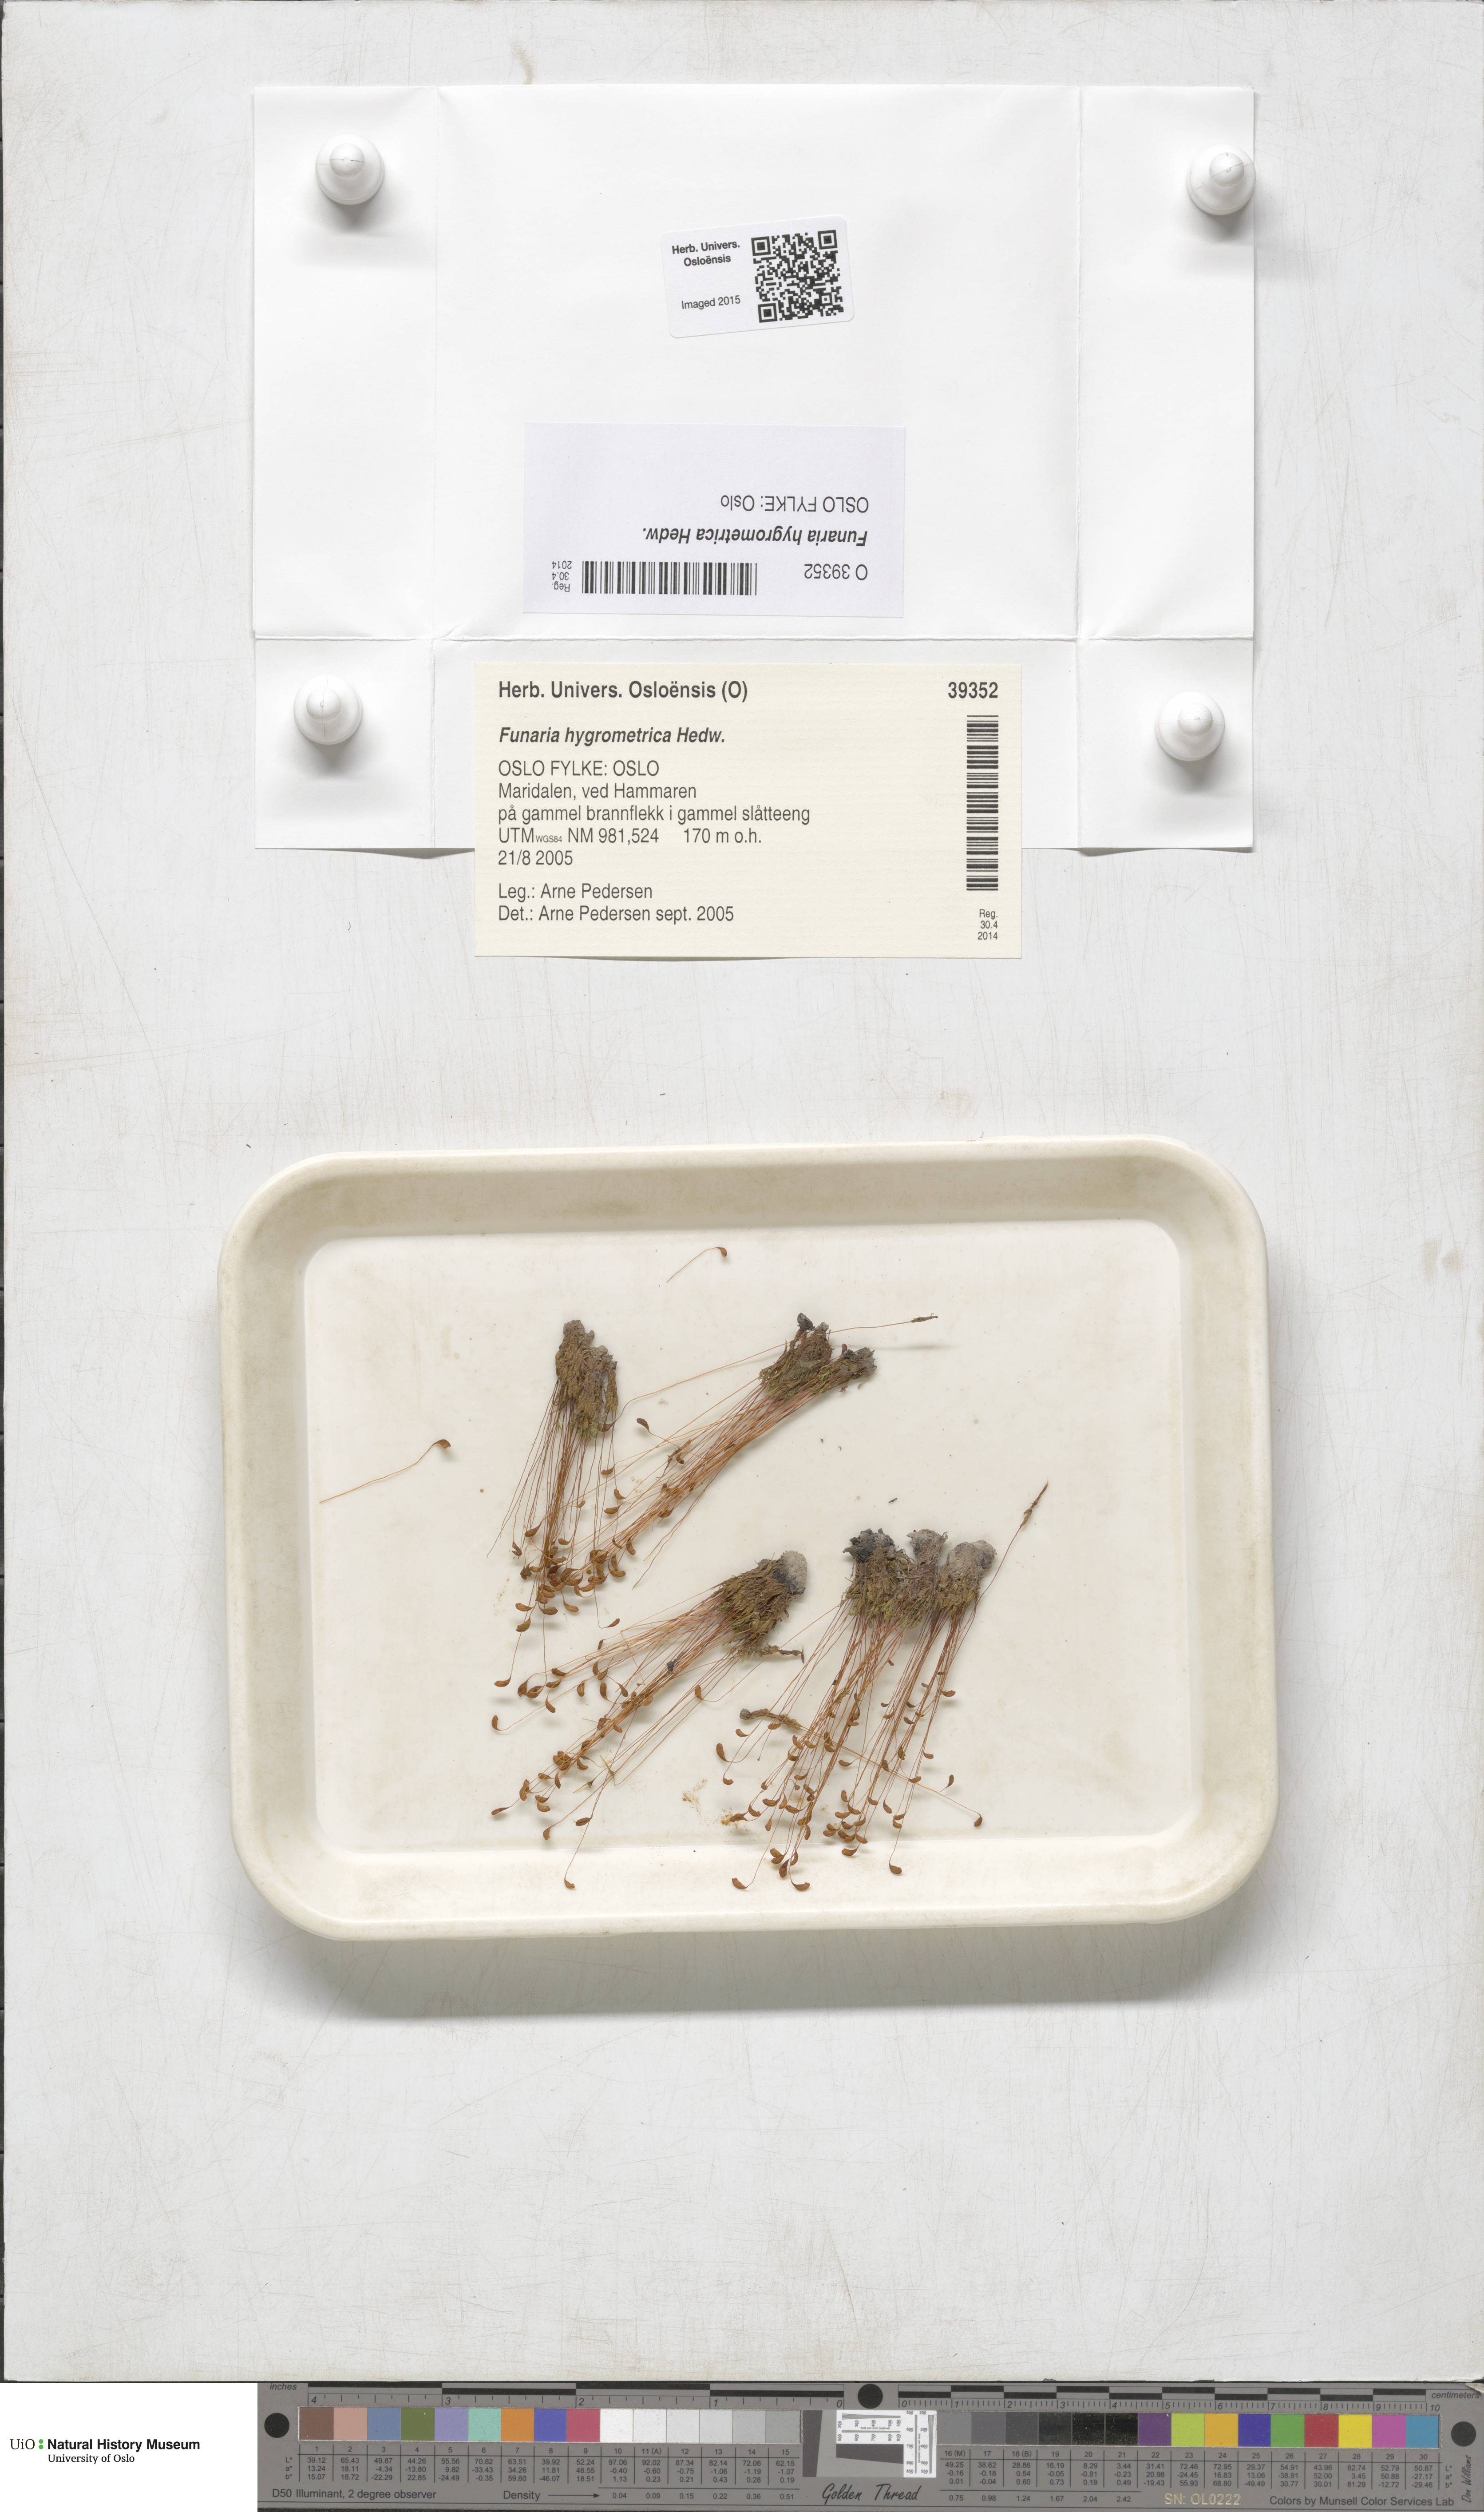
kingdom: Plantae
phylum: Bryophyta
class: Bryopsida
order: Funariales
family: Funariaceae
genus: Funaria
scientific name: Funaria hygrometrica
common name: Common cord moss
